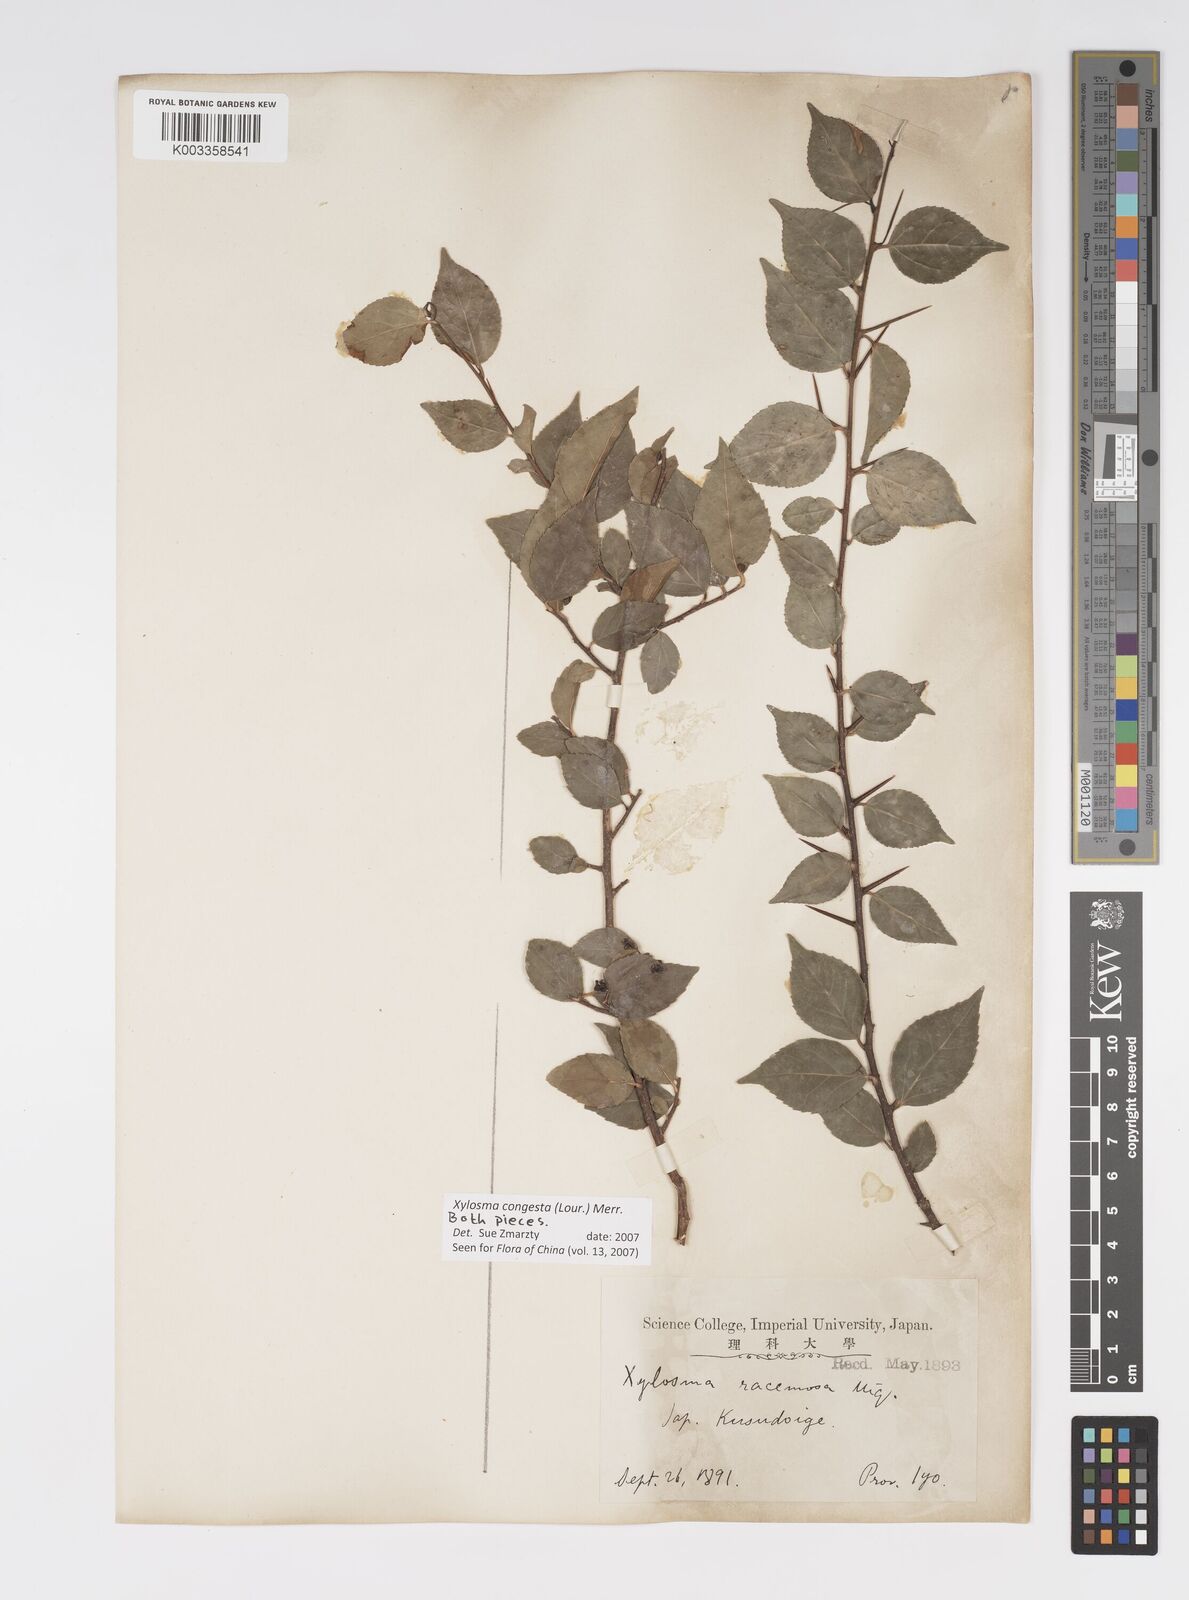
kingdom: Plantae
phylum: Tracheophyta
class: Magnoliopsida
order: Malpighiales
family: Salicaceae
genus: Xylosma
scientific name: Xylosma racemosum
